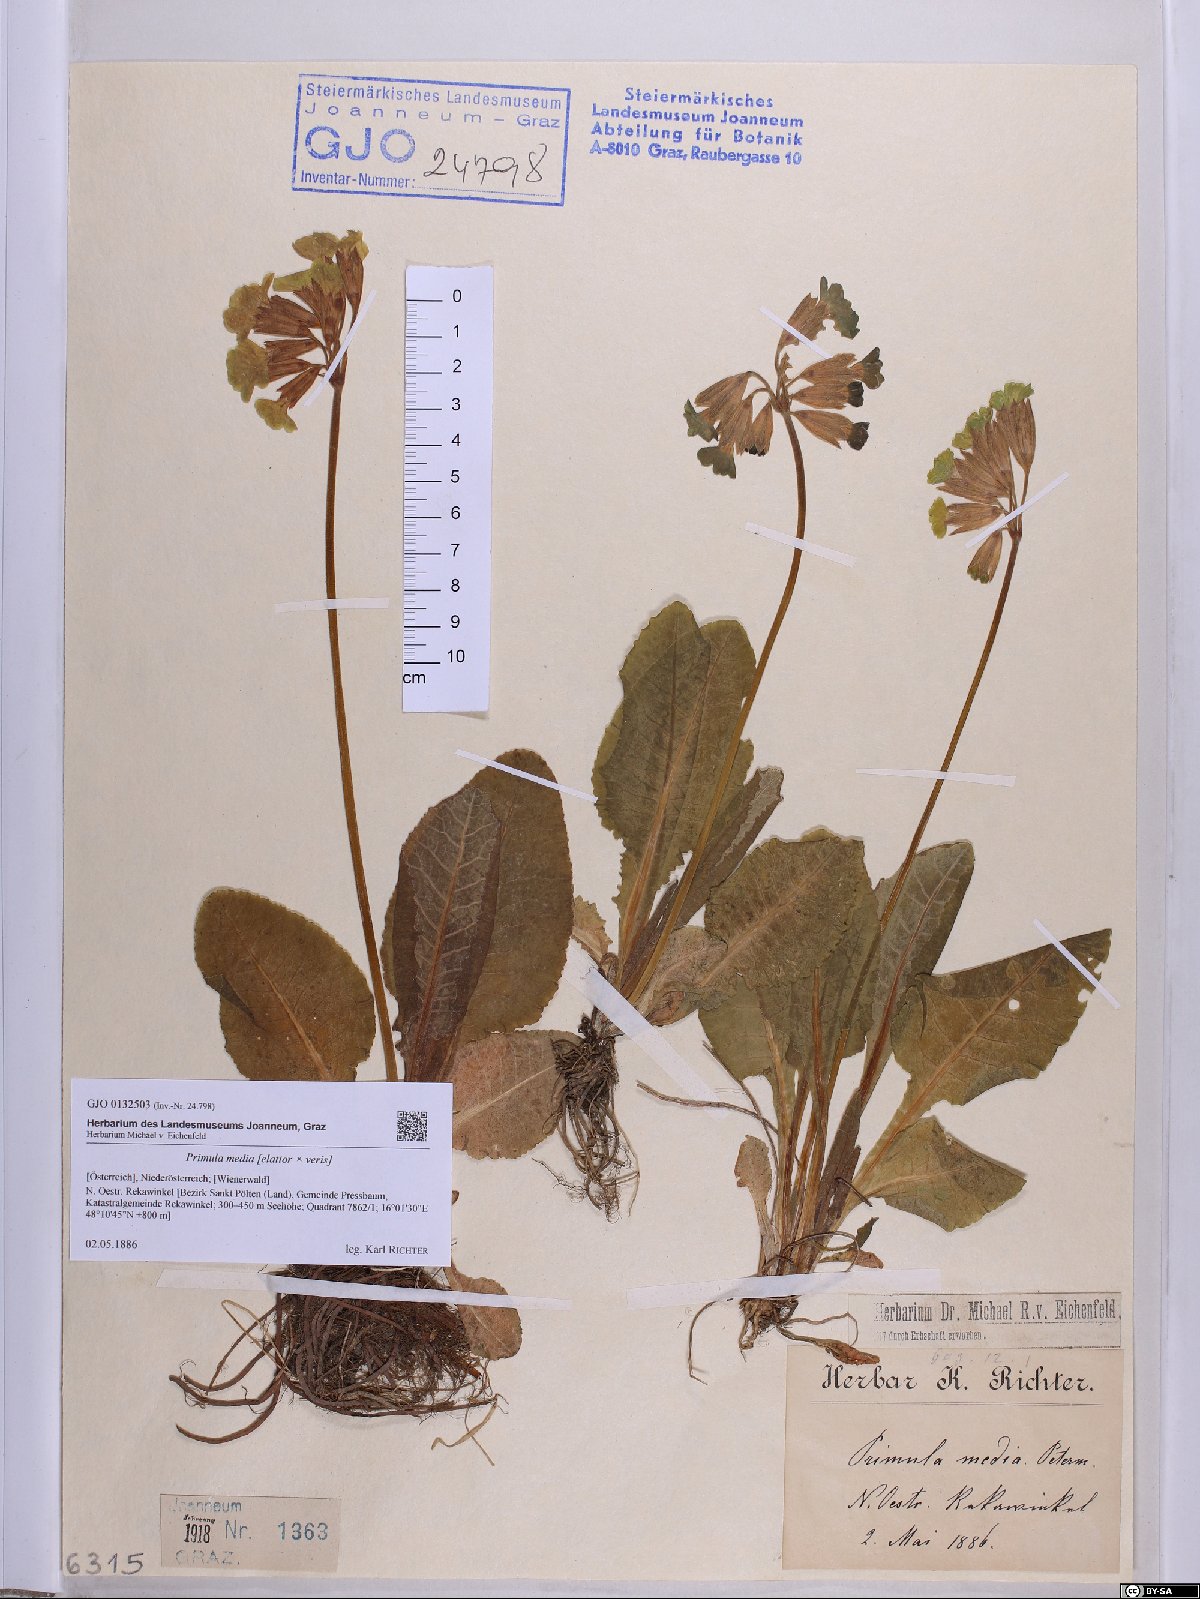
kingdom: Plantae
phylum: Tracheophyta
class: Magnoliopsida
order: Ericales
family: Primulaceae
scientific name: Primulaceae
